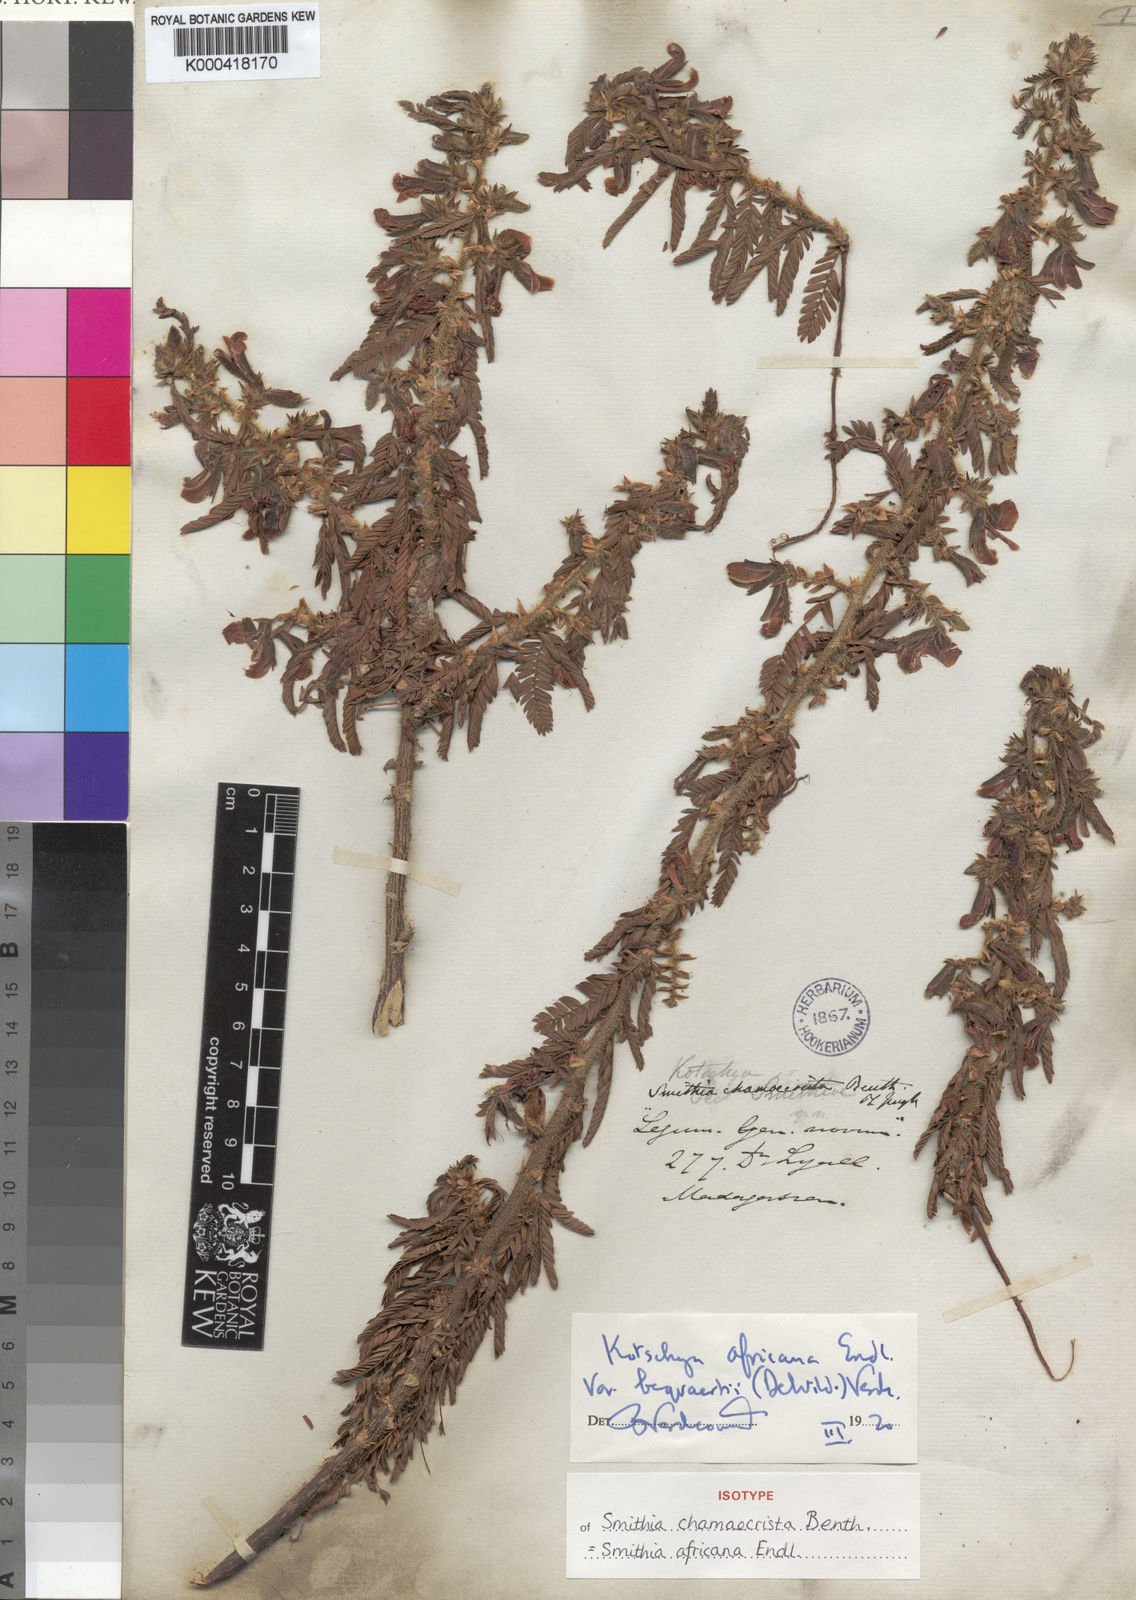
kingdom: Plantae
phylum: Tracheophyta
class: Magnoliopsida
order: Fabales
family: Fabaceae
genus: Kotschya
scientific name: Kotschya africana
